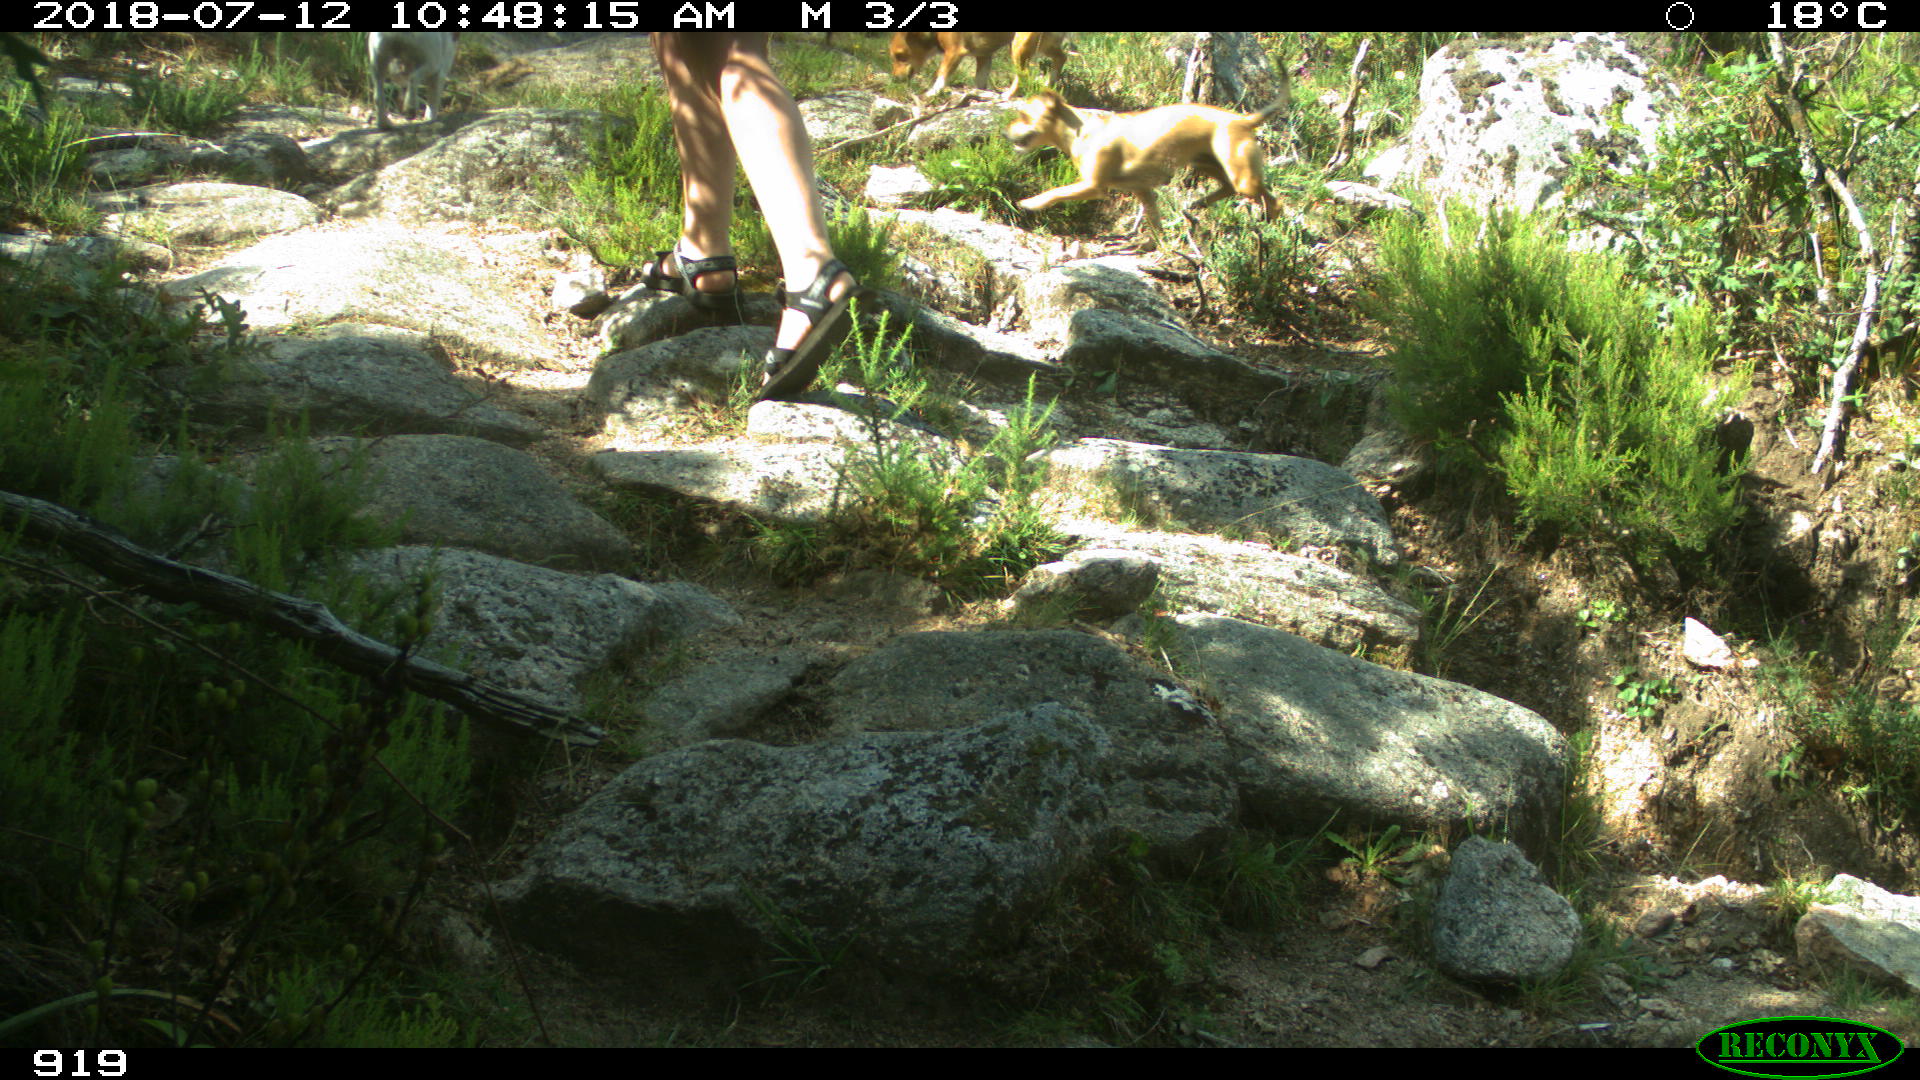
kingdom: Animalia
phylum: Chordata
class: Mammalia
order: Carnivora
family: Canidae
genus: Canis
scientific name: Canis lupus
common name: Gray wolf
